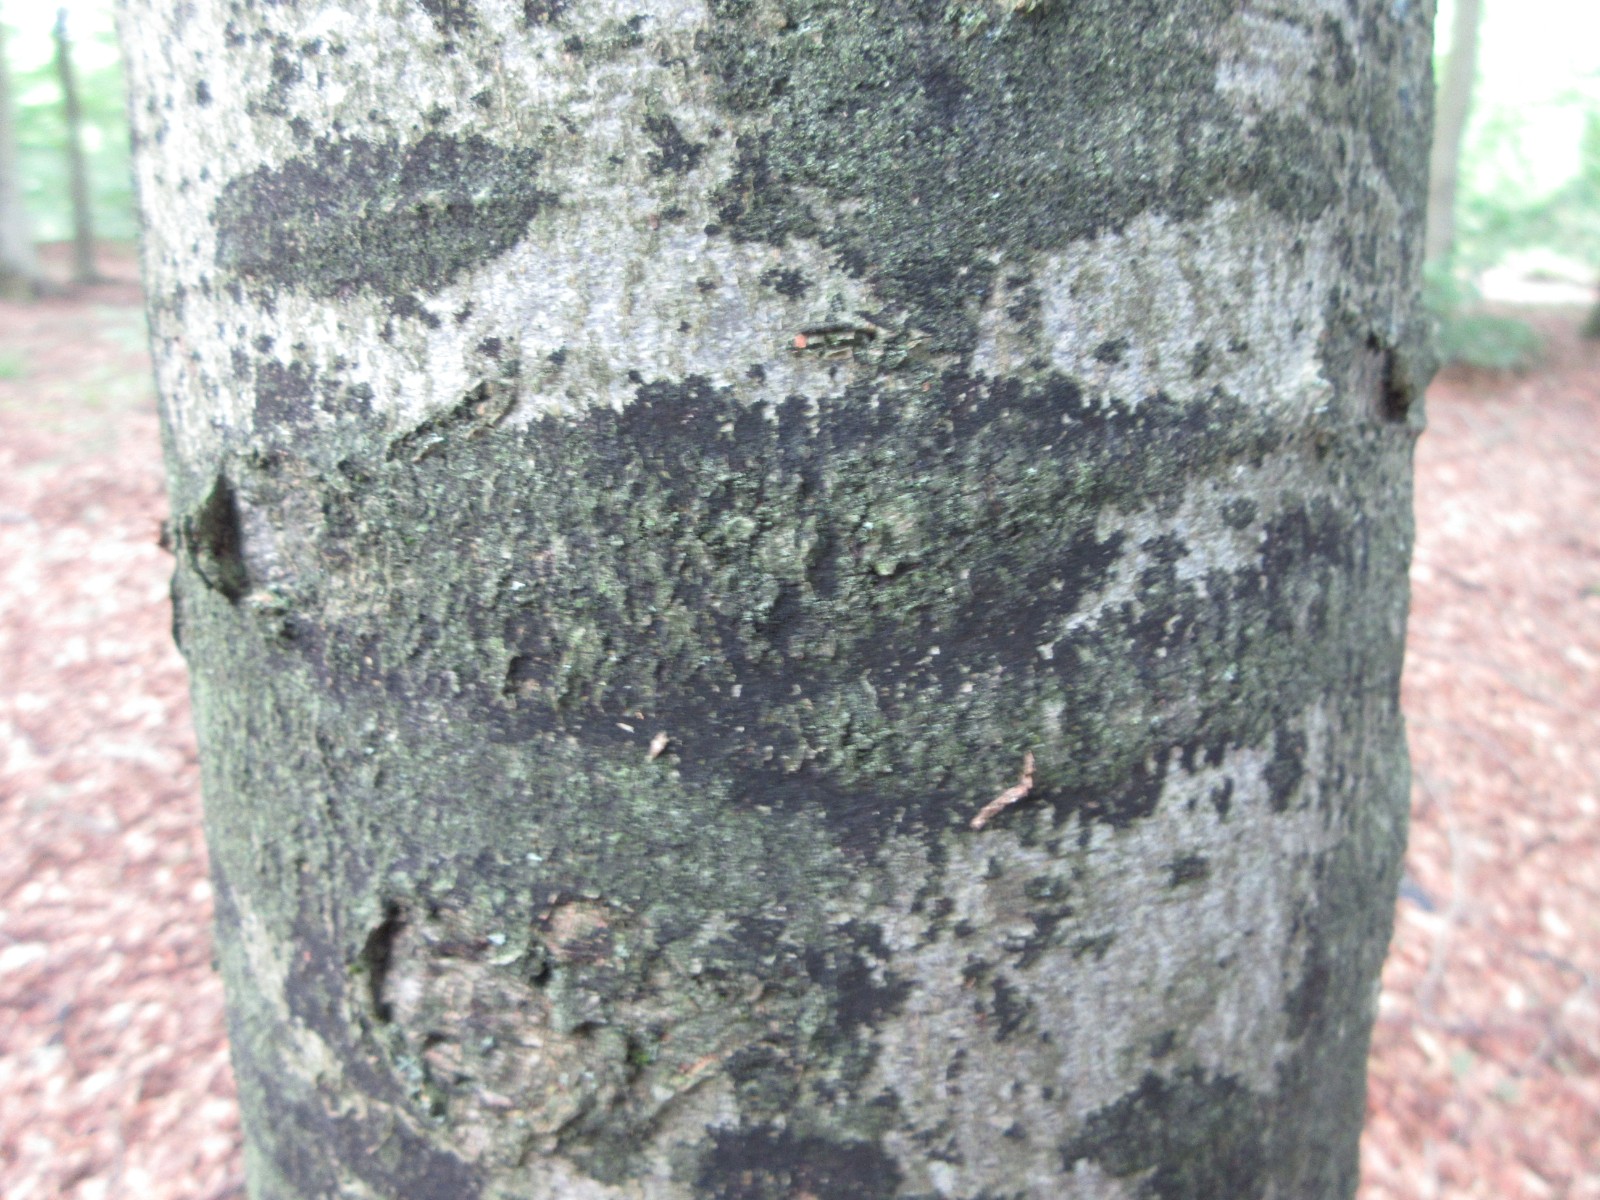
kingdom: Fungi
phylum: Ascomycota
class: Leotiomycetes
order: Rhytismatales
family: Ascodichaenaceae
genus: Ascodichaena
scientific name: Ascodichaena rugosa
